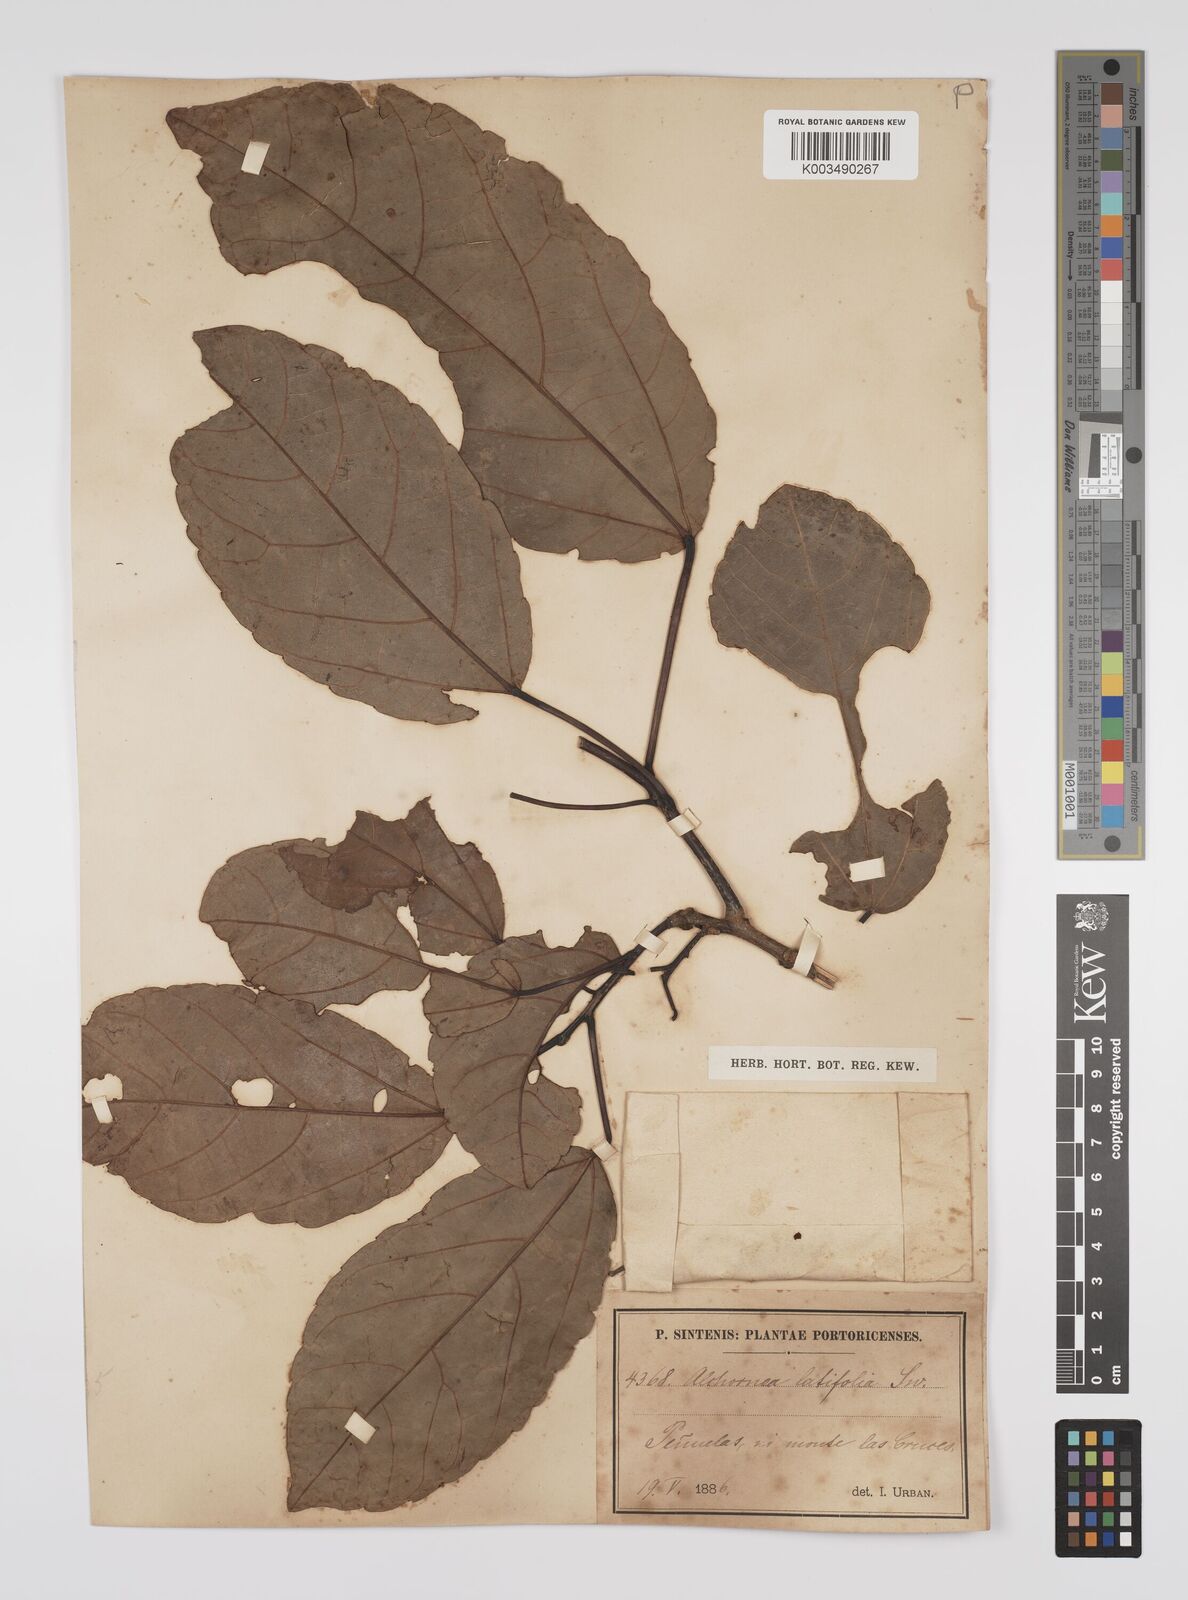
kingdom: Plantae
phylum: Tracheophyta
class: Magnoliopsida
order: Malpighiales
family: Euphorbiaceae
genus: Alchornea
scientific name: Alchornea latifolia
